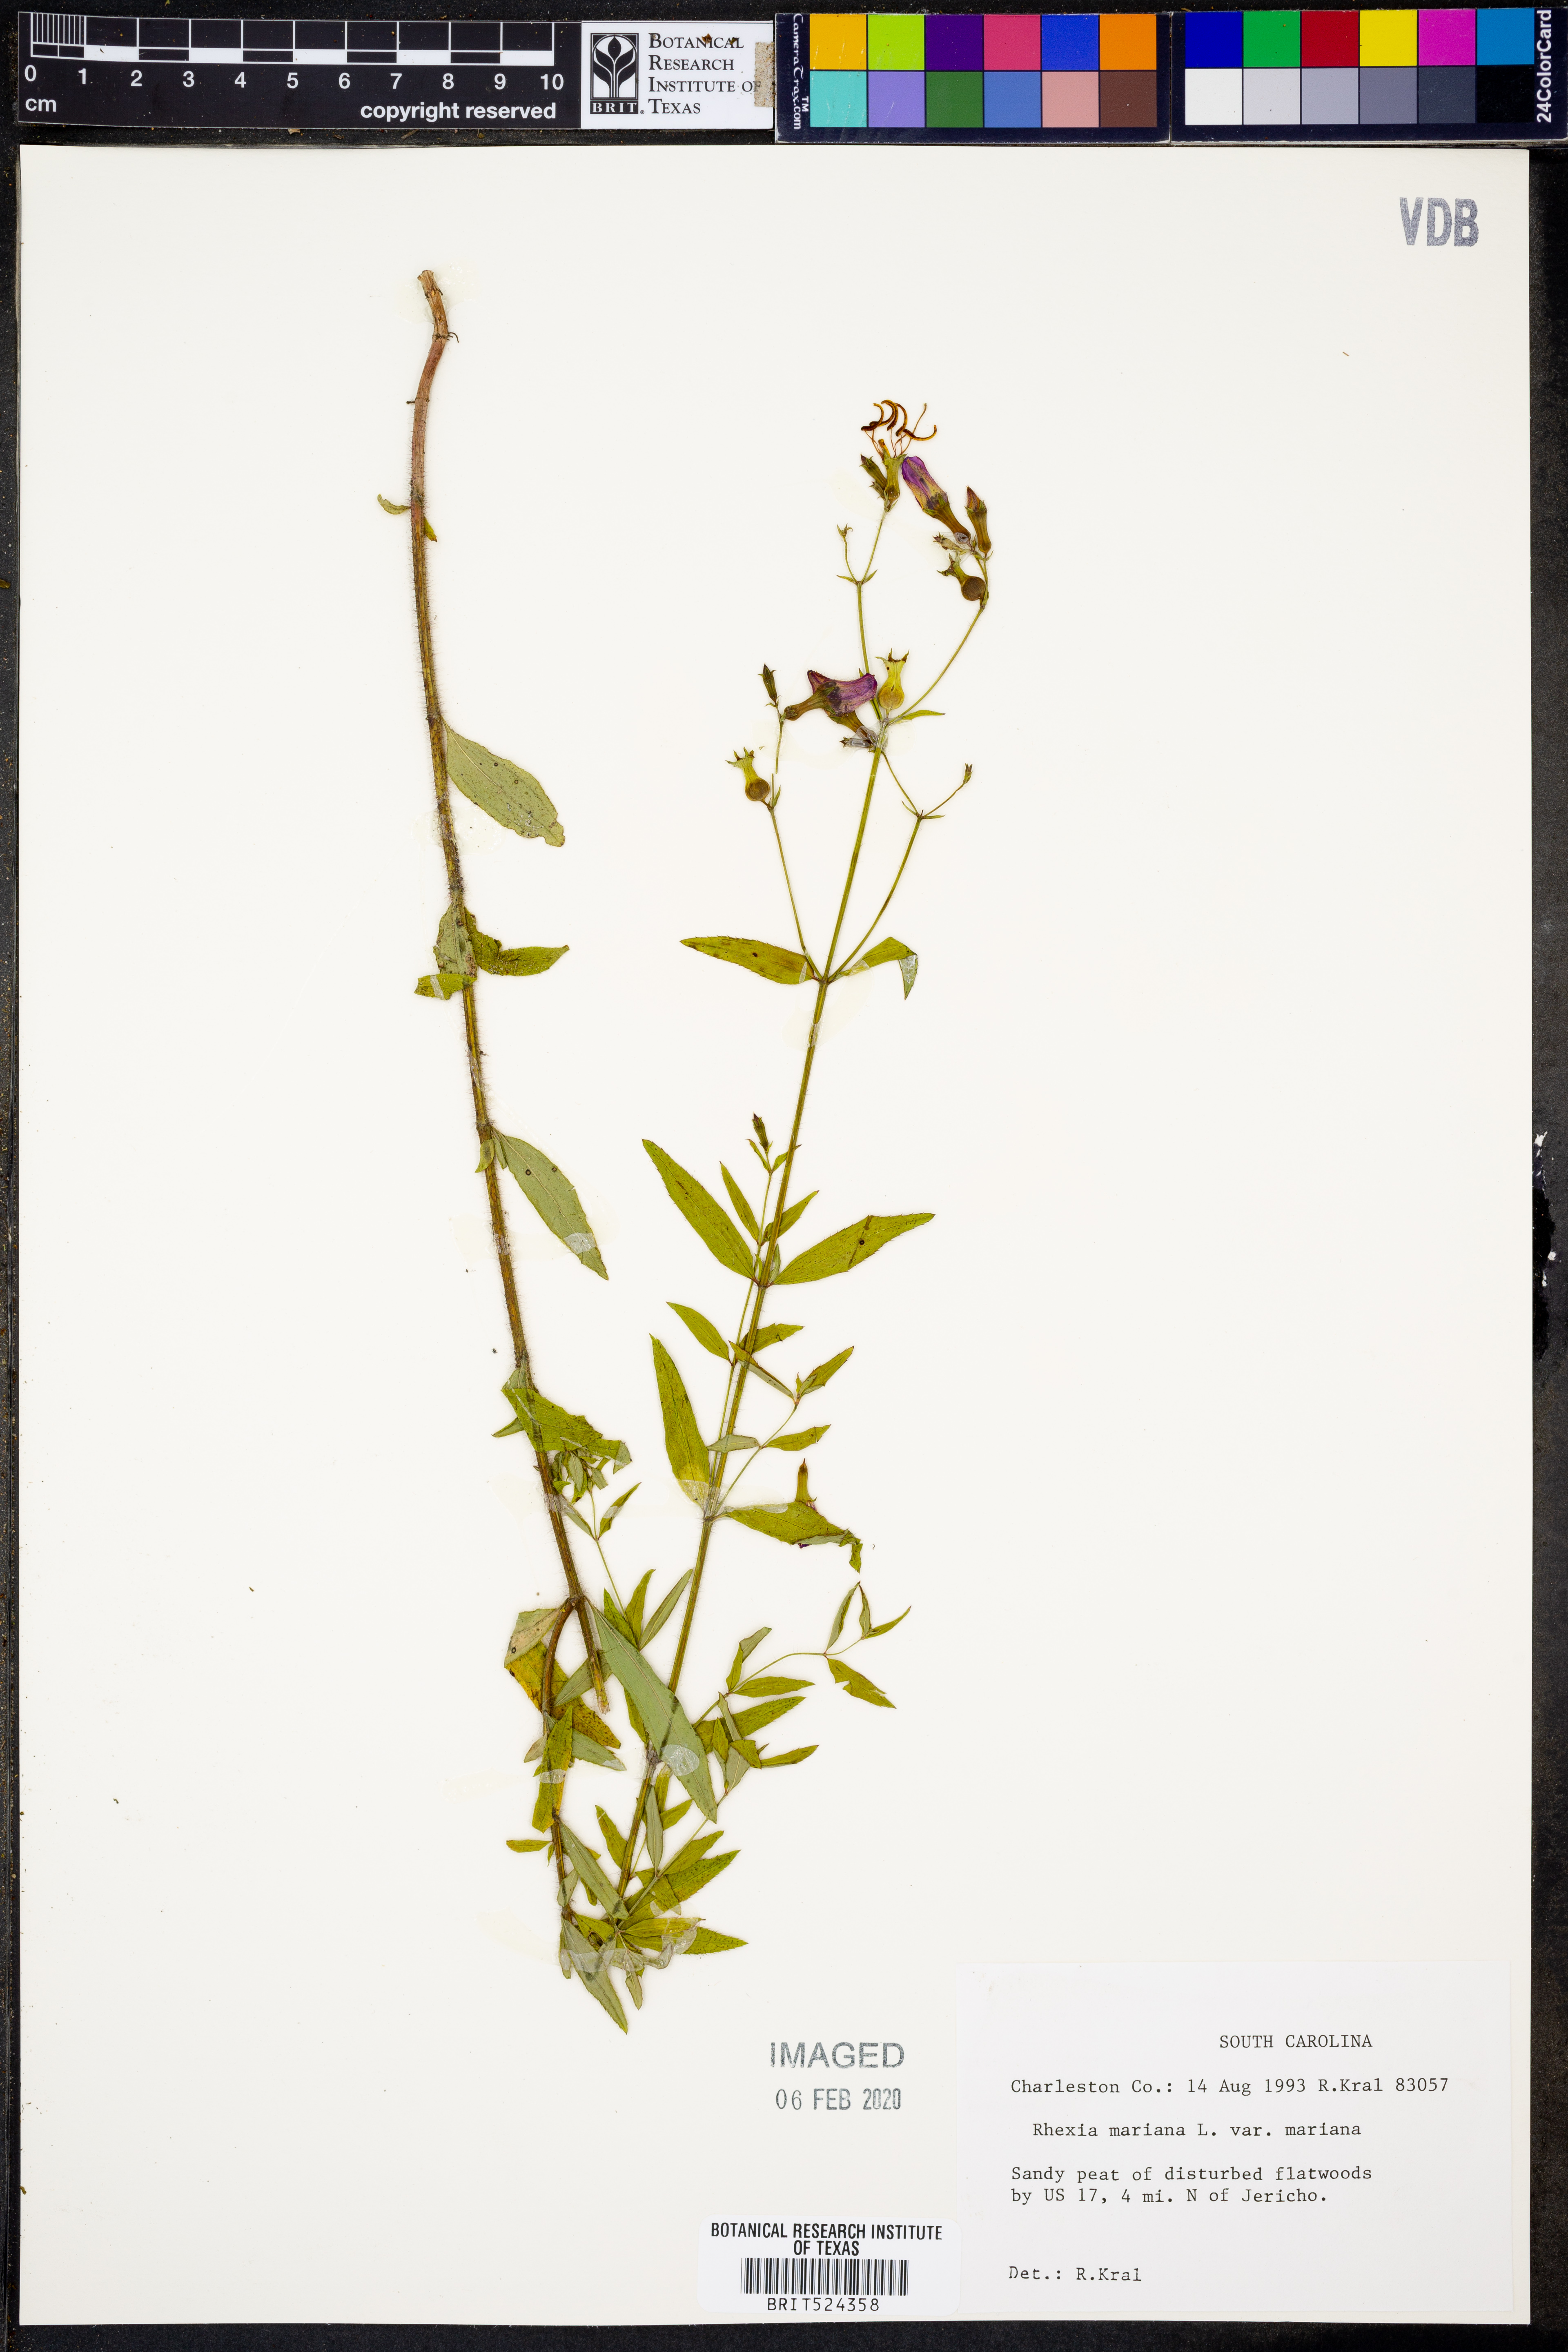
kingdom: Plantae
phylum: Tracheophyta
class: Magnoliopsida
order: Myrtales
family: Melastomataceae
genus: Rhexia
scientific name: Rhexia mariana
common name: Dull meadow-pitcher
